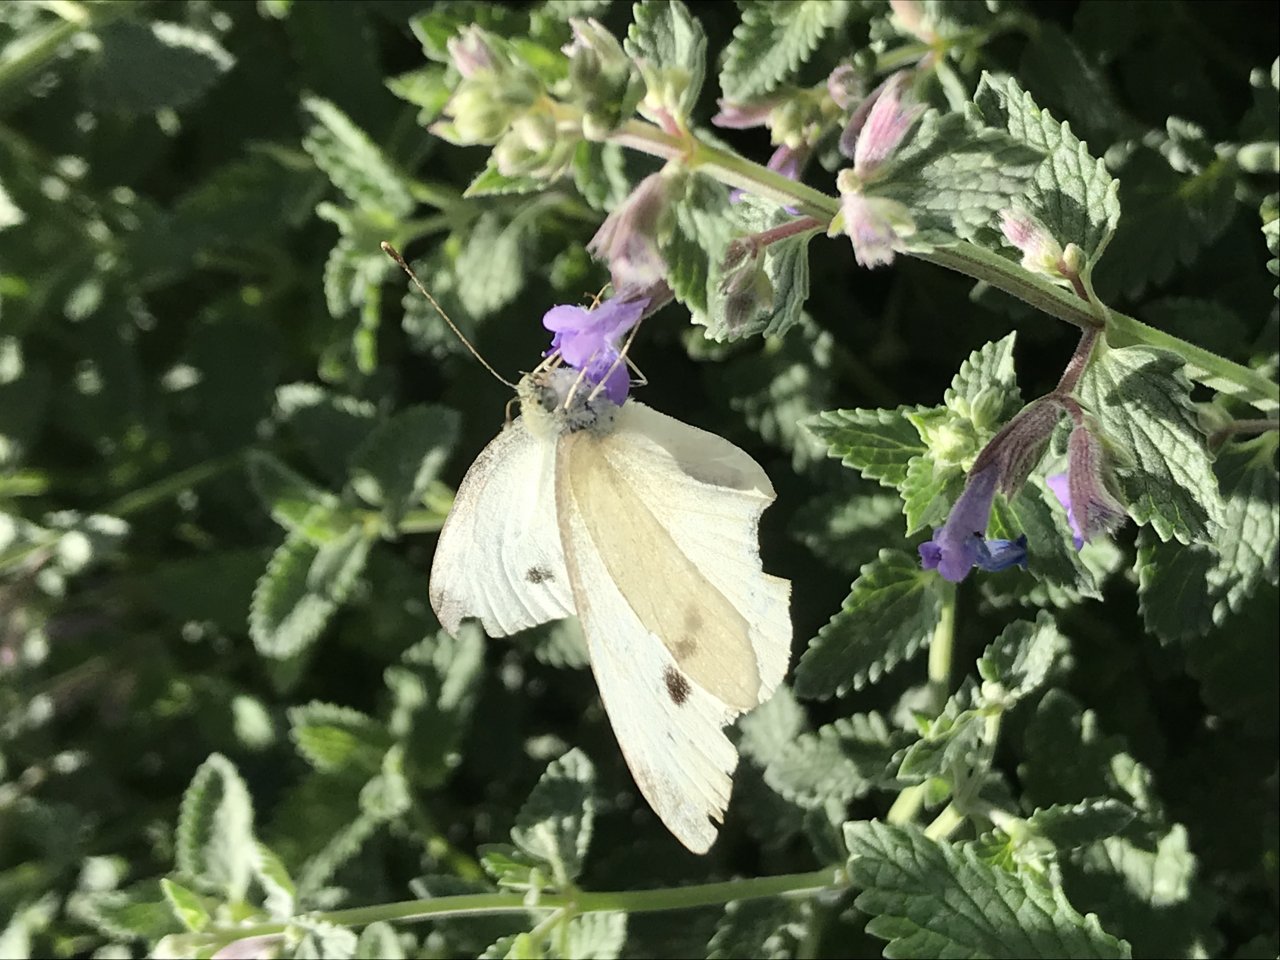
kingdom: Animalia
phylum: Arthropoda
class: Insecta
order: Lepidoptera
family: Pieridae
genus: Pieris
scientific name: Pieris rapae
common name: Cabbage White
